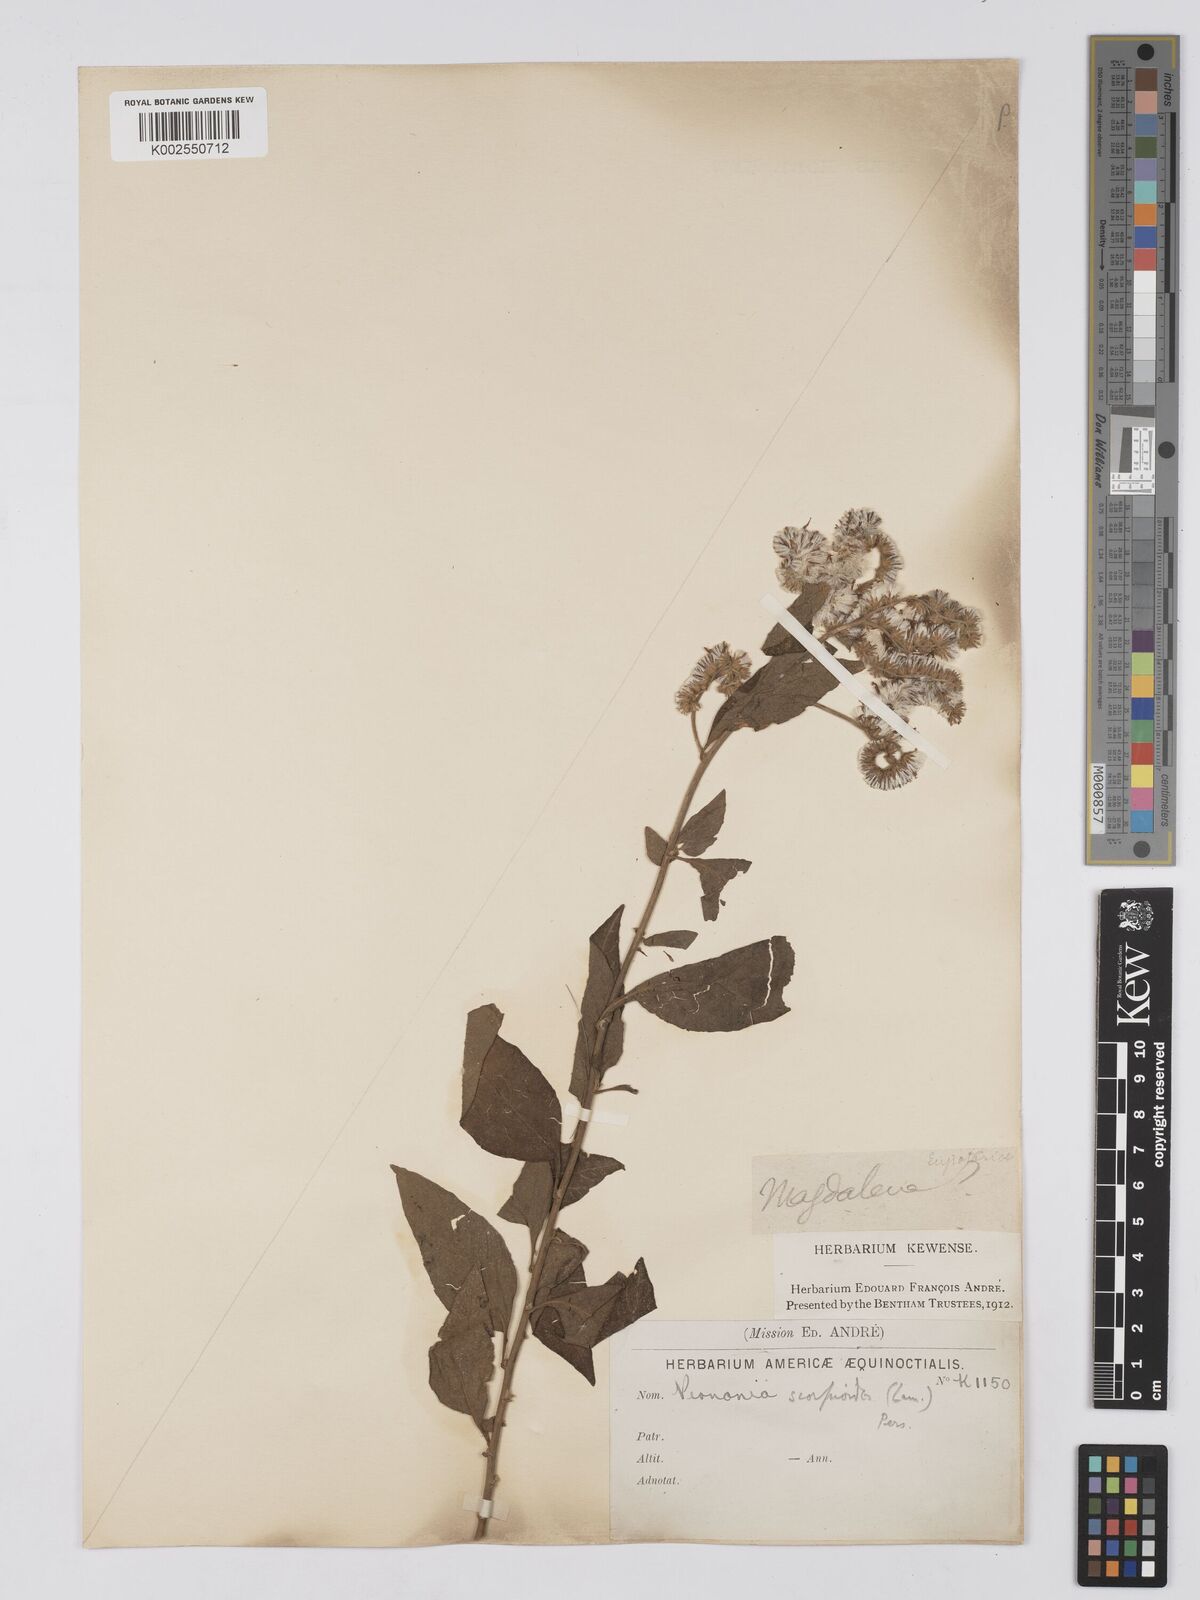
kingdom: Plantae
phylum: Tracheophyta
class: Magnoliopsida
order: Asterales
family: Asteraceae
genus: Cyrtocymura
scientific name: Cyrtocymura scorpioides
